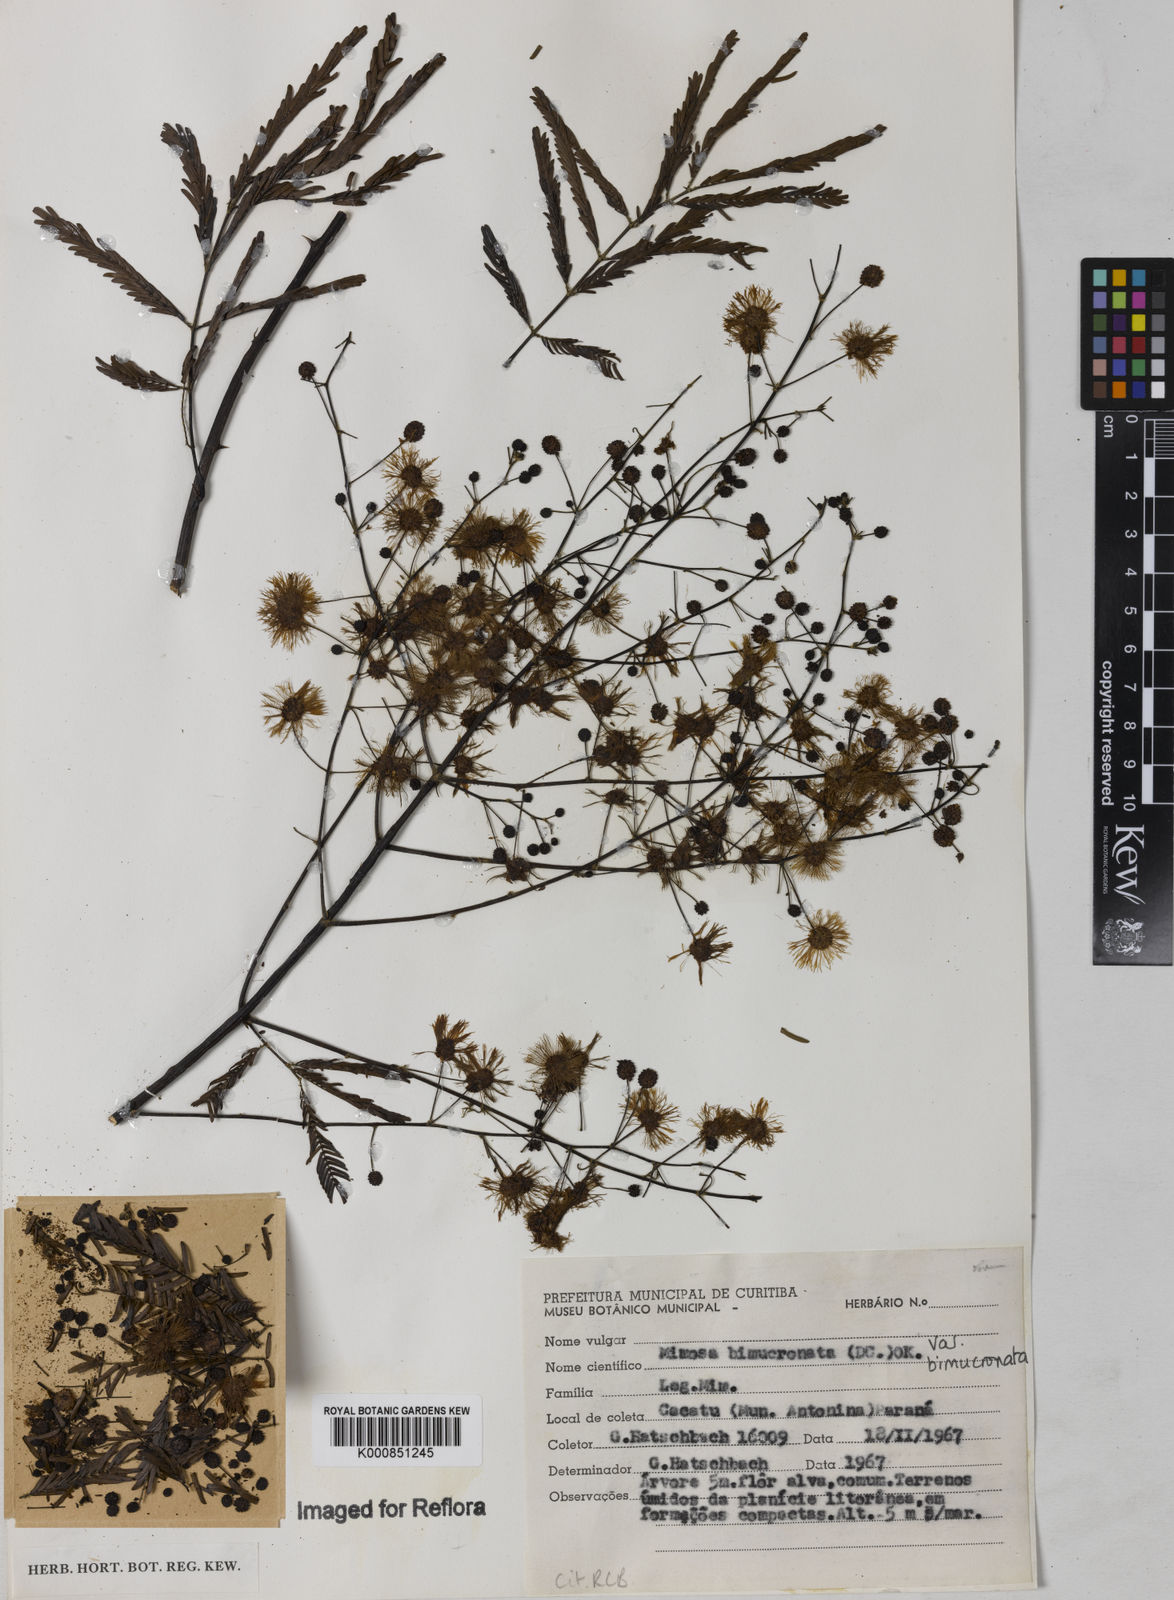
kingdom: Plantae
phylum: Tracheophyta
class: Magnoliopsida
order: Fabales
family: Fabaceae
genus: Mimosa
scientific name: Mimosa bimucronata
